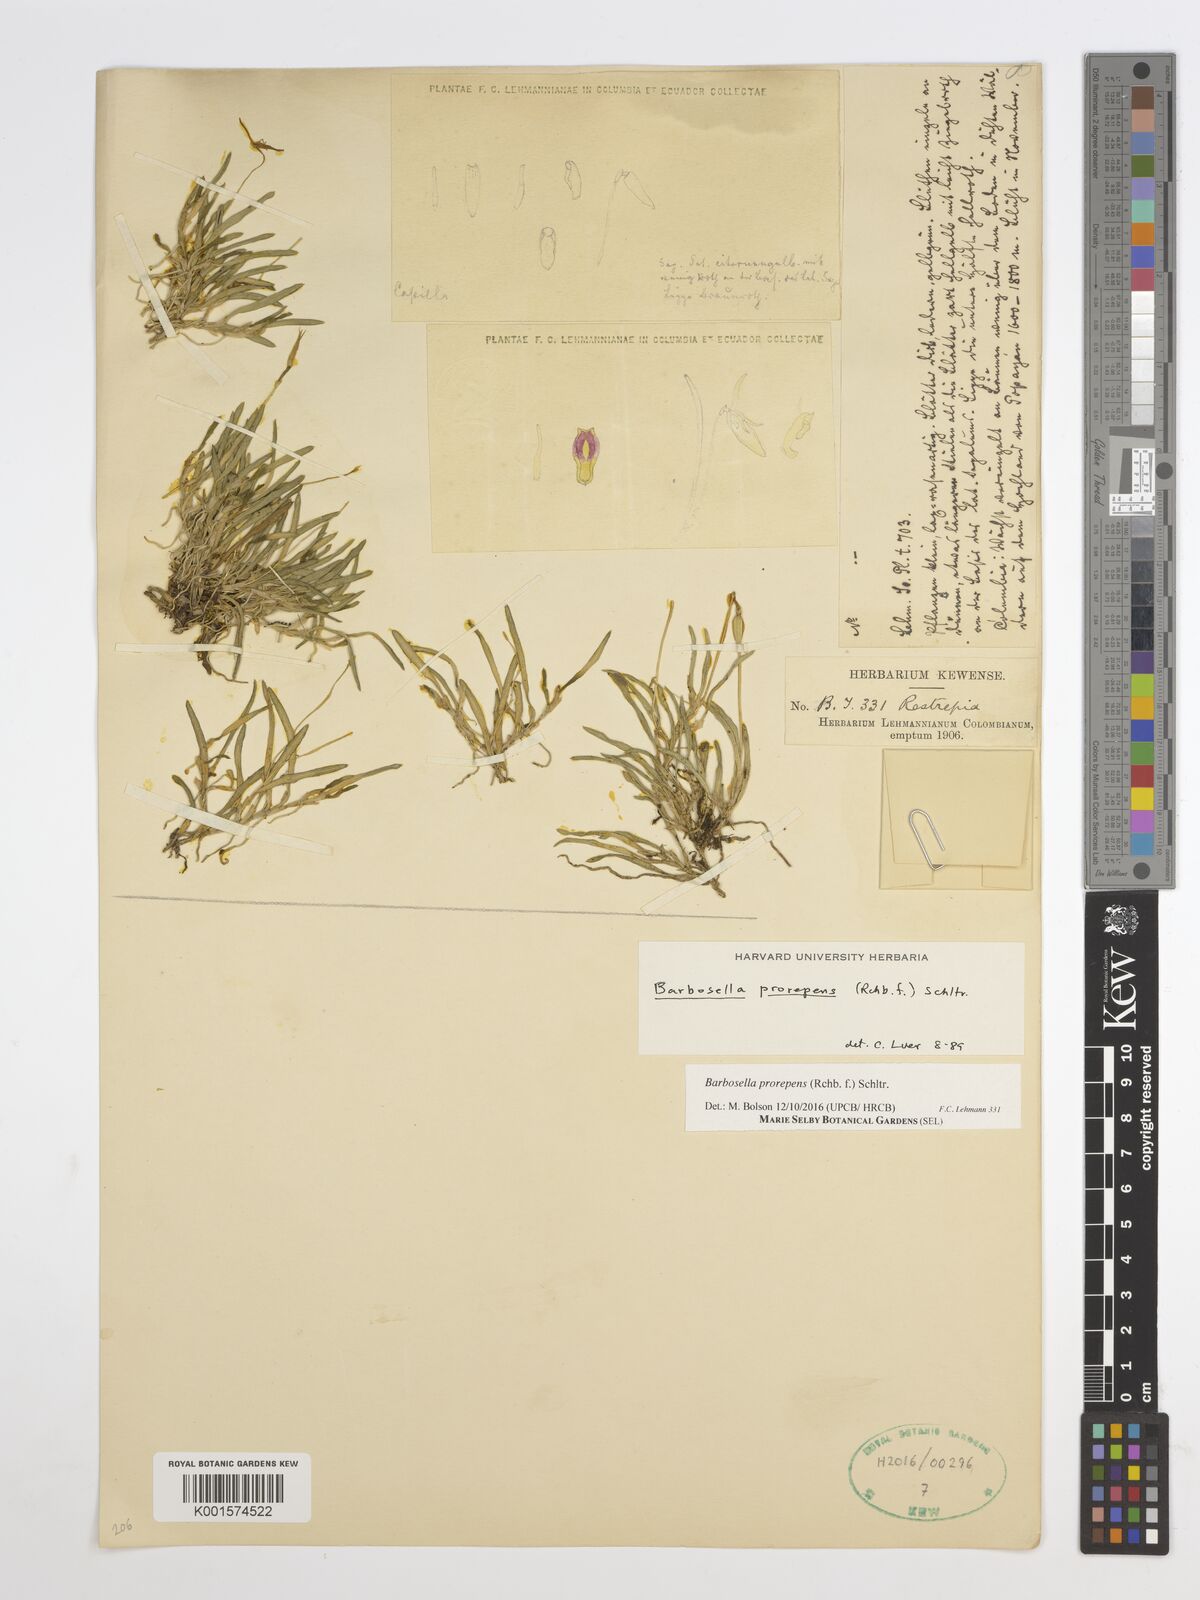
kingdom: Plantae
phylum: Tracheophyta
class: Liliopsida
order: Asparagales
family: Orchidaceae
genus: Barbosella
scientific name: Barbosella prorepens
